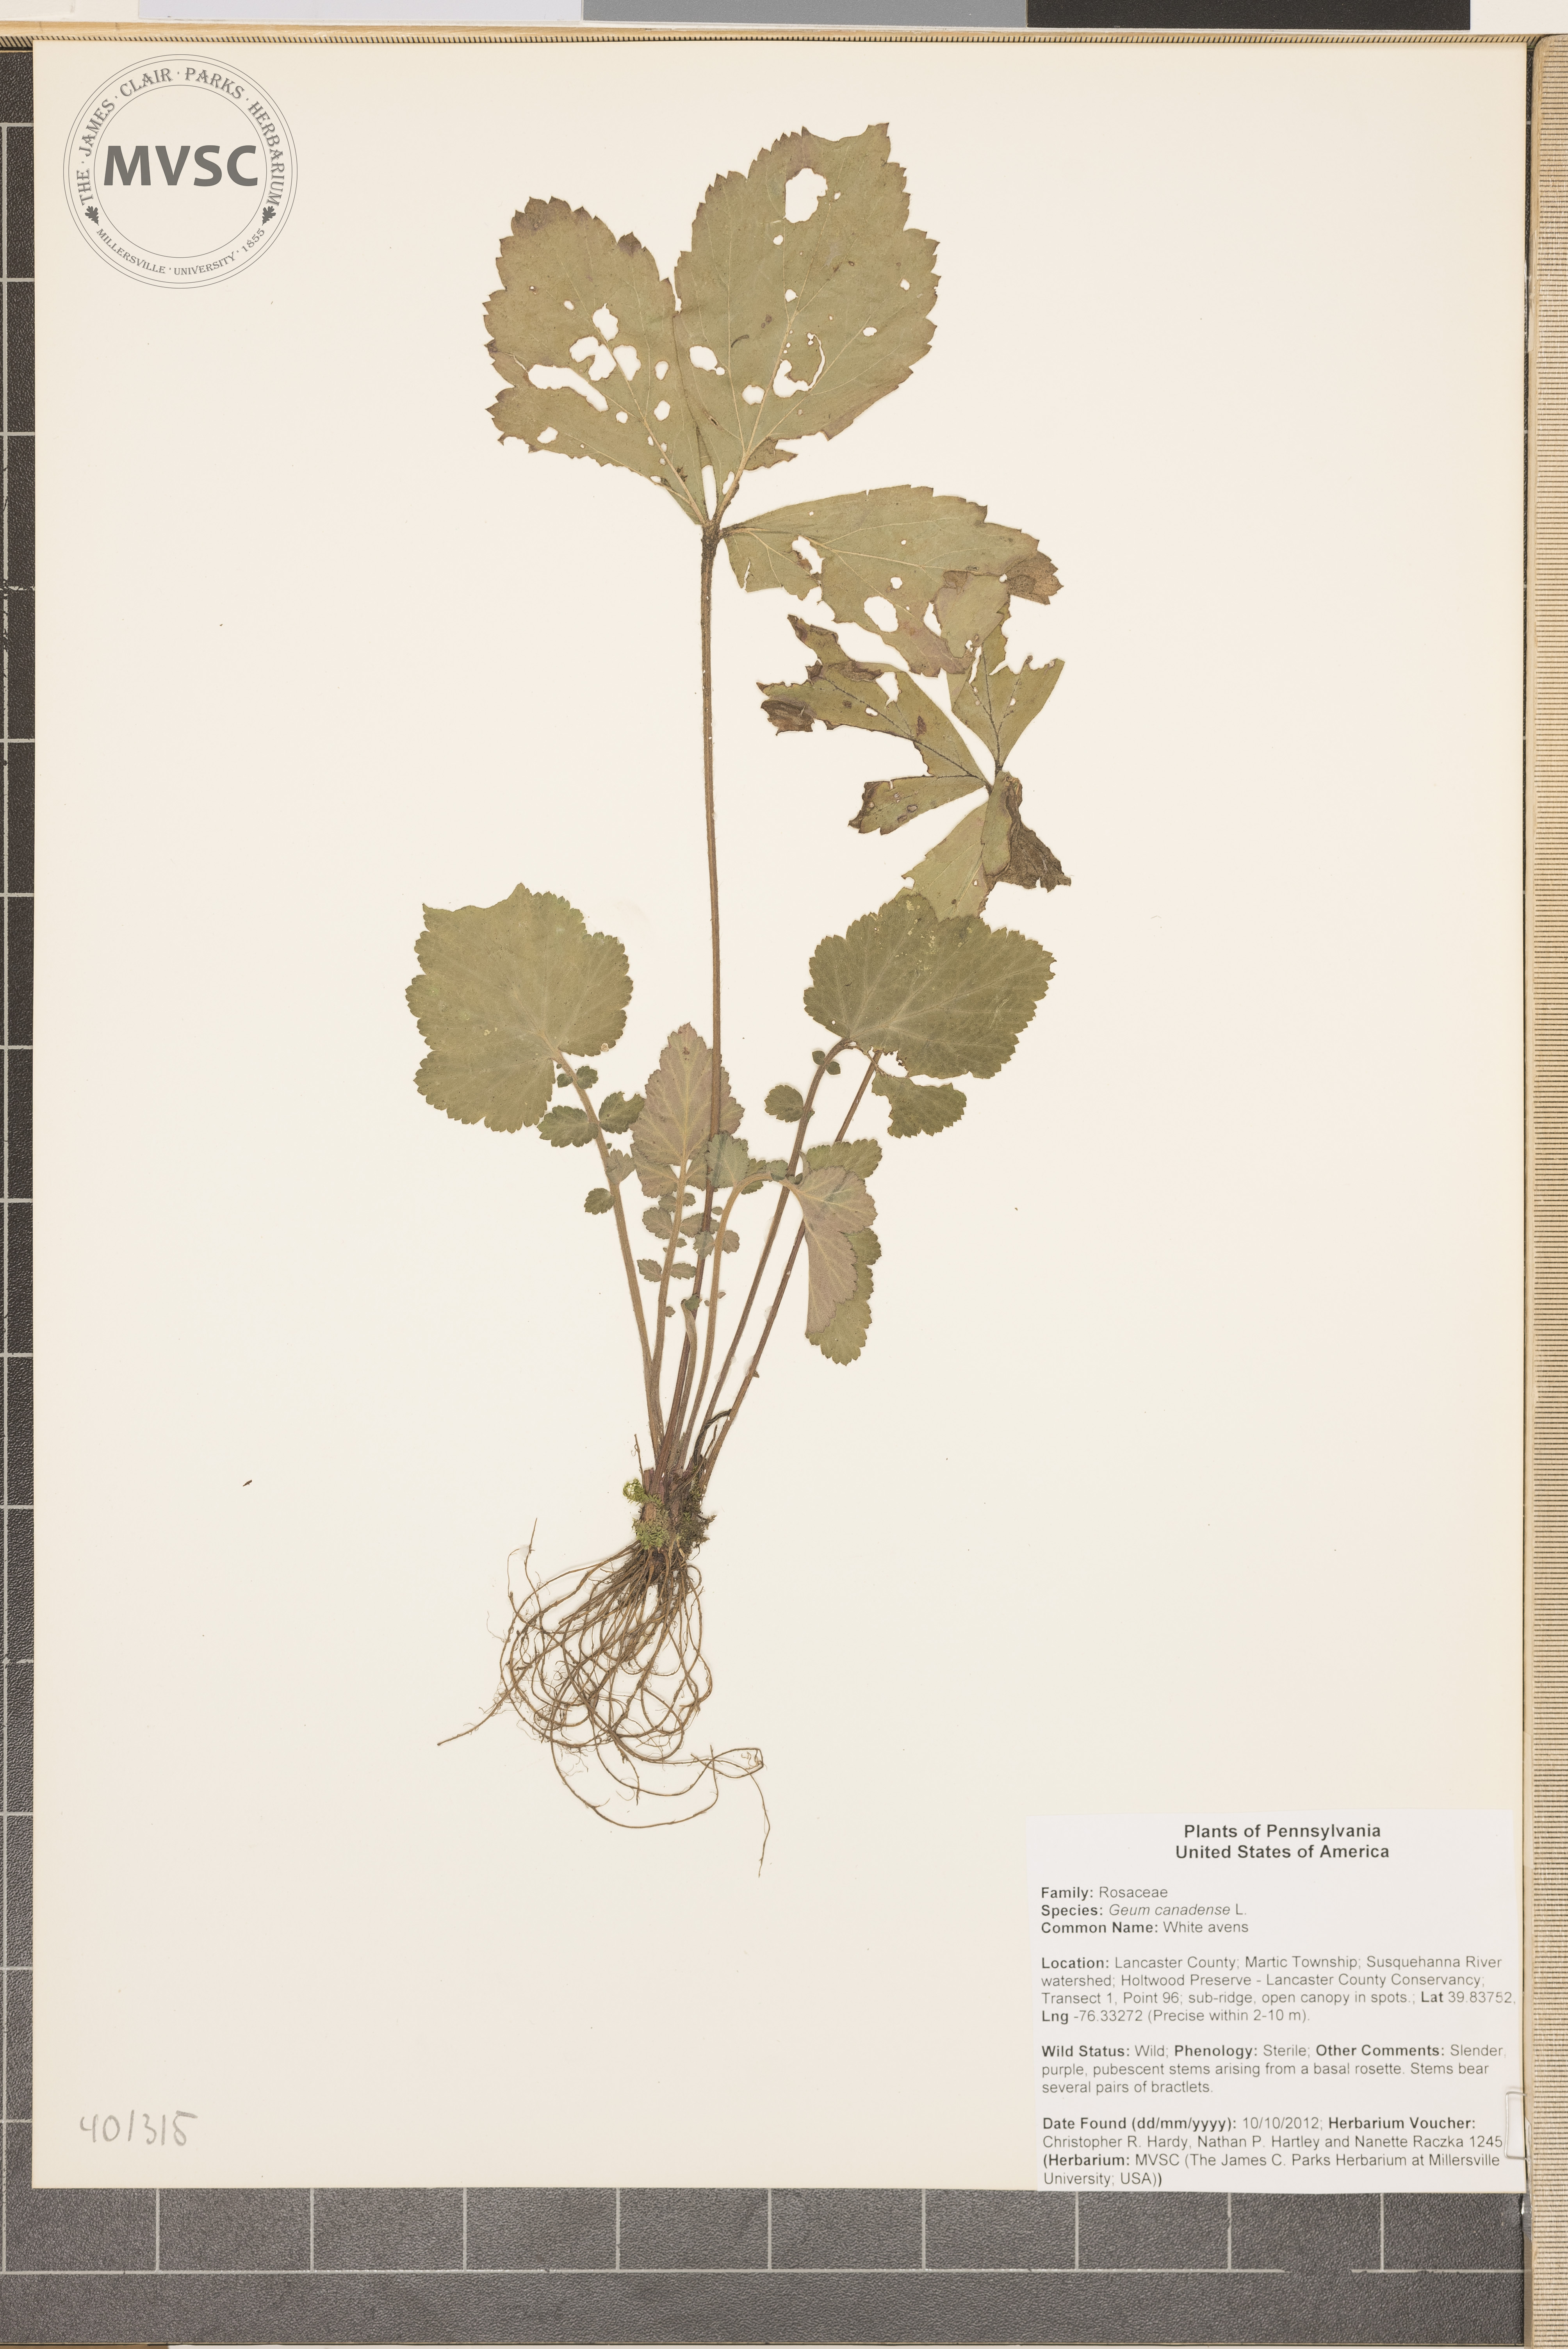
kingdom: Plantae
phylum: Tracheophyta
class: Magnoliopsida
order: Rosales
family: Rosaceae
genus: Geum
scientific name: Geum canadense
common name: White avens
